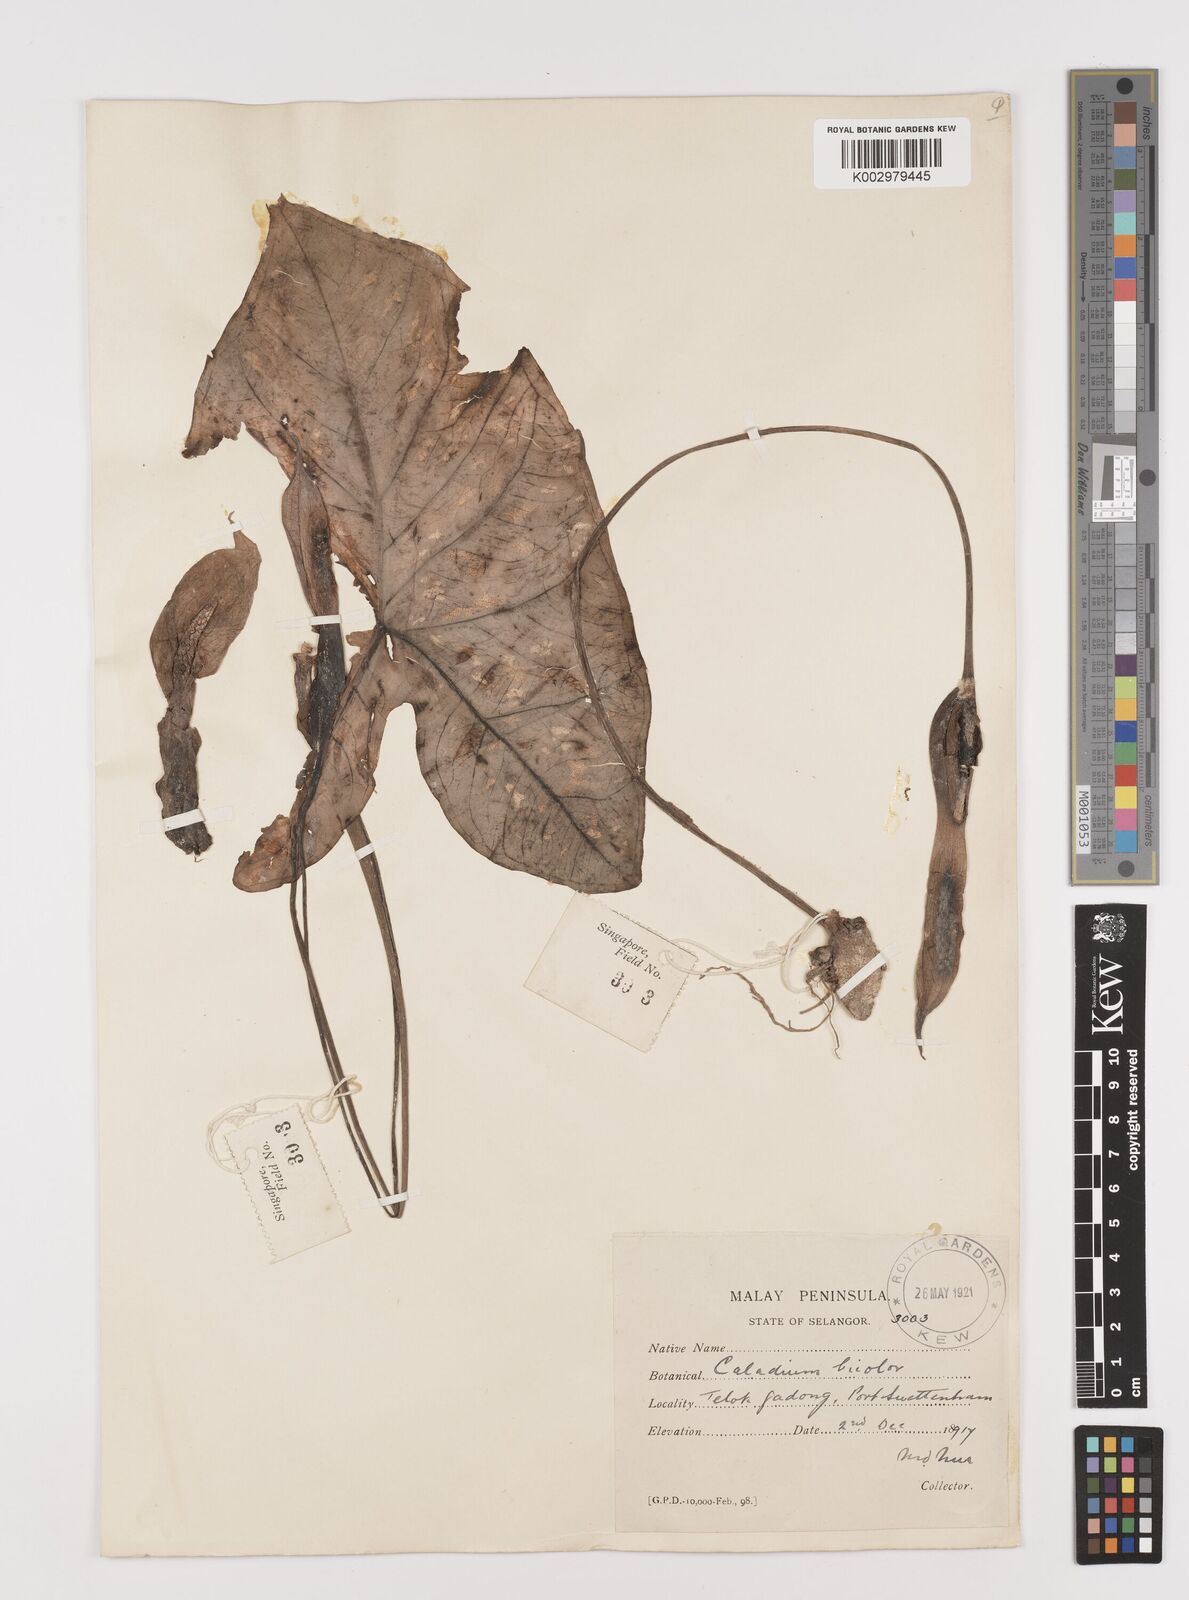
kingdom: Plantae
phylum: Tracheophyta
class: Liliopsida
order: Alismatales
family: Araceae
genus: Caladium
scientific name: Caladium bicolor
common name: Artist's pallet
